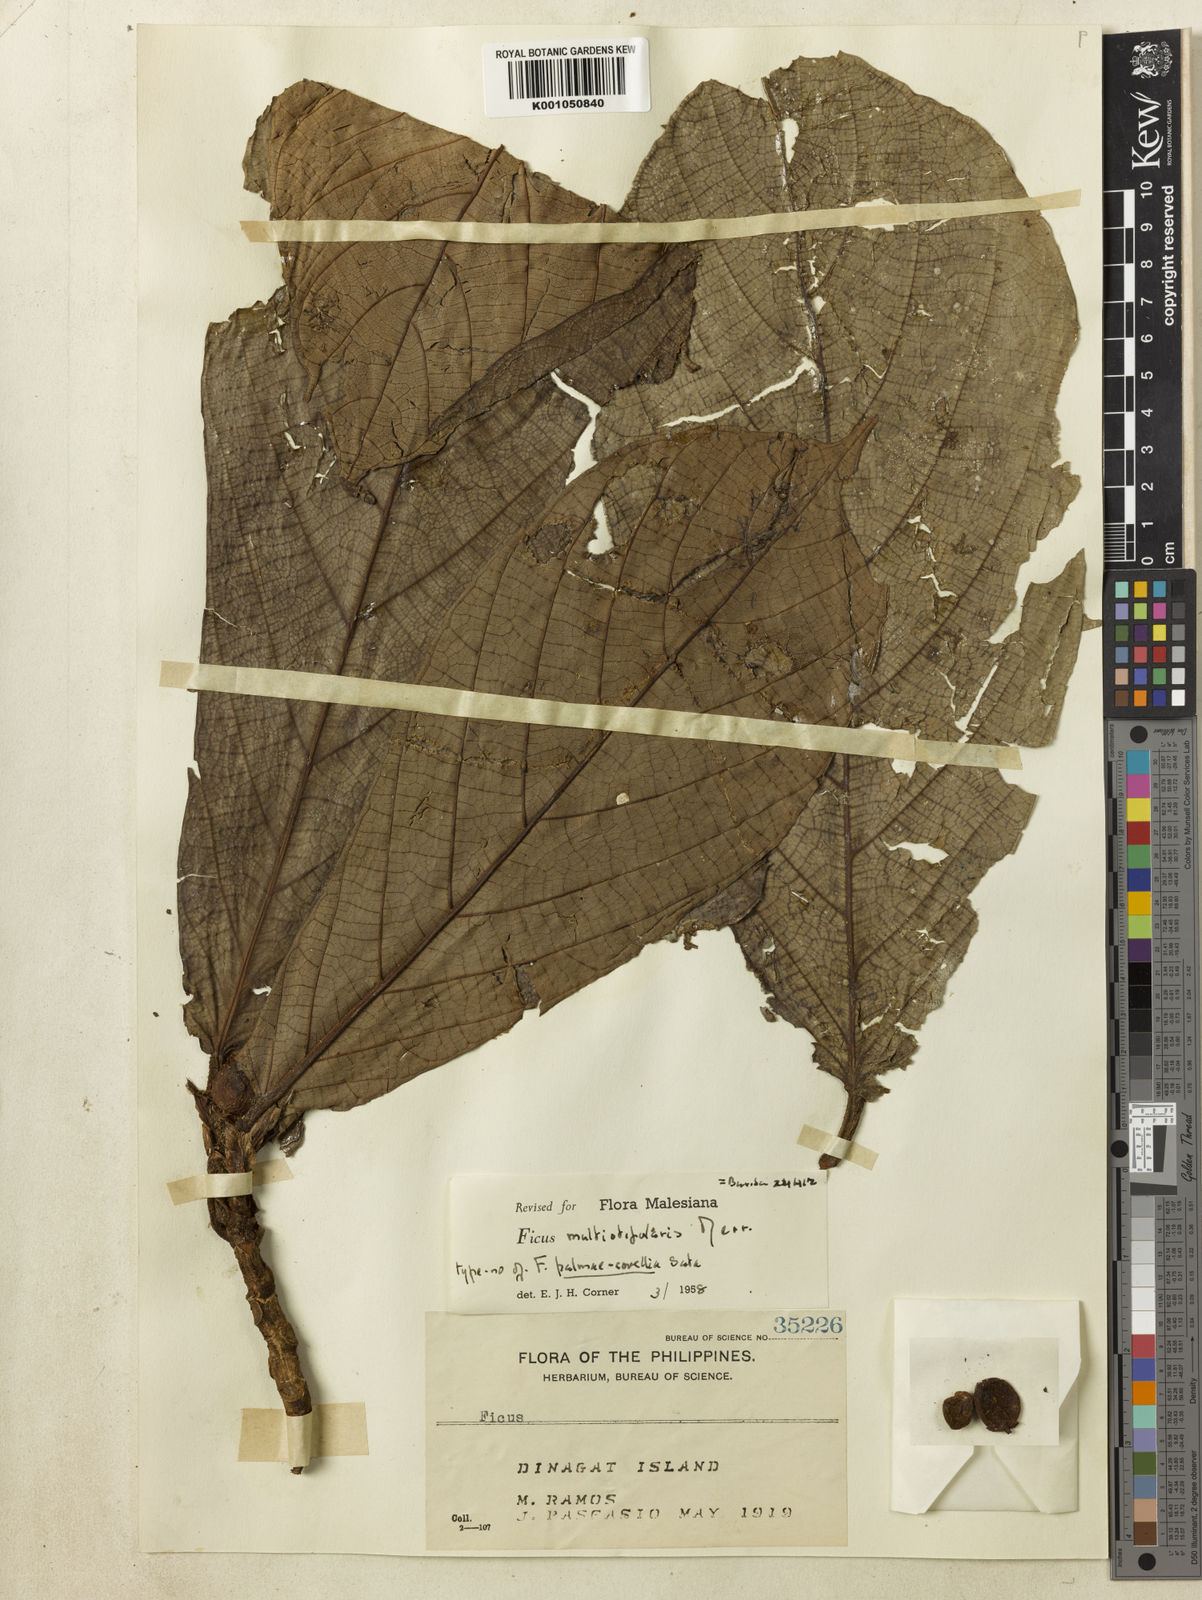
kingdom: Plantae
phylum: Tracheophyta
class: Magnoliopsida
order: Rosales
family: Moraceae
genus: Ficus
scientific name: Ficus carpenteriana
